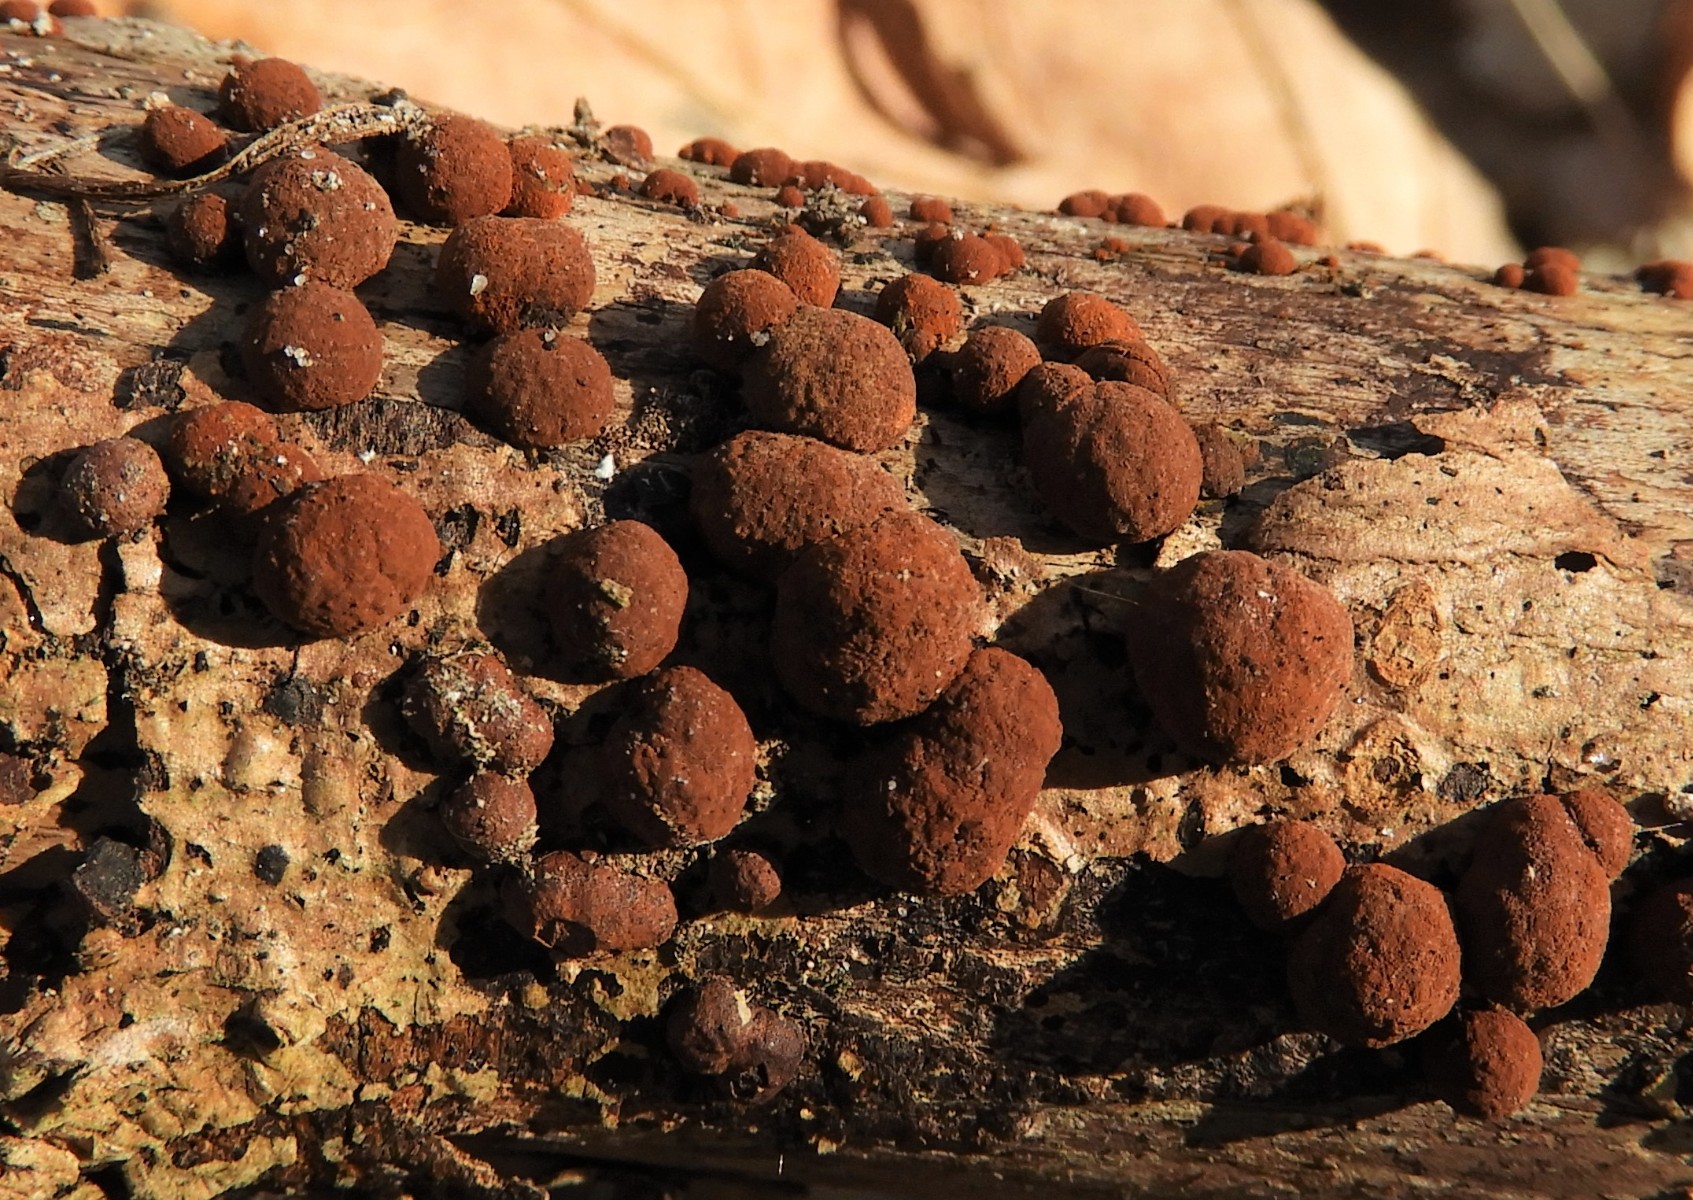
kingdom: Fungi
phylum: Ascomycota
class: Sordariomycetes
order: Xylariales
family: Hypoxylaceae
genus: Hypoxylon
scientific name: Hypoxylon fragiforme
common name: kuljordbær
